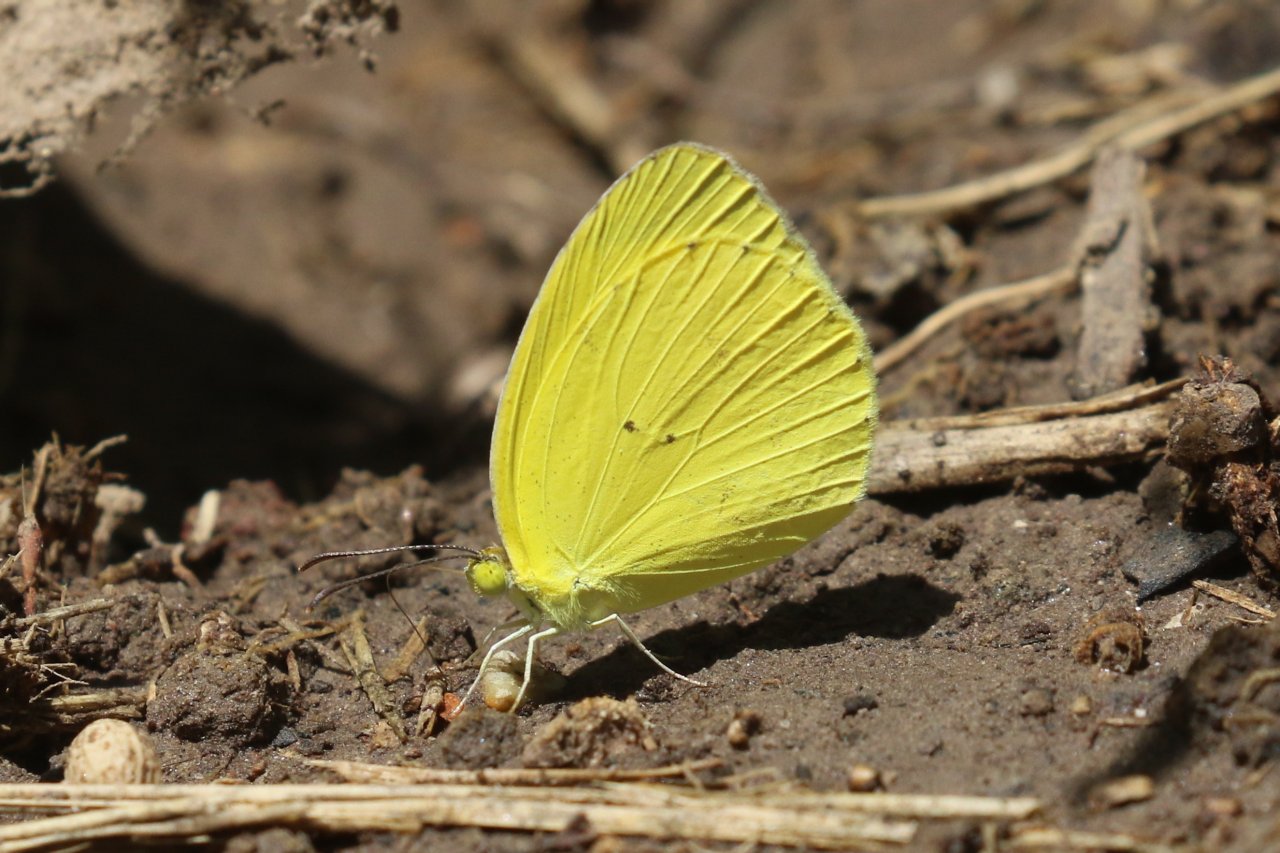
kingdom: Animalia
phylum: Arthropoda
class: Insecta
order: Lepidoptera
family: Pieridae
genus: Pyrisitia
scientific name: Pyrisitia nise
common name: Mimosa Yellow
